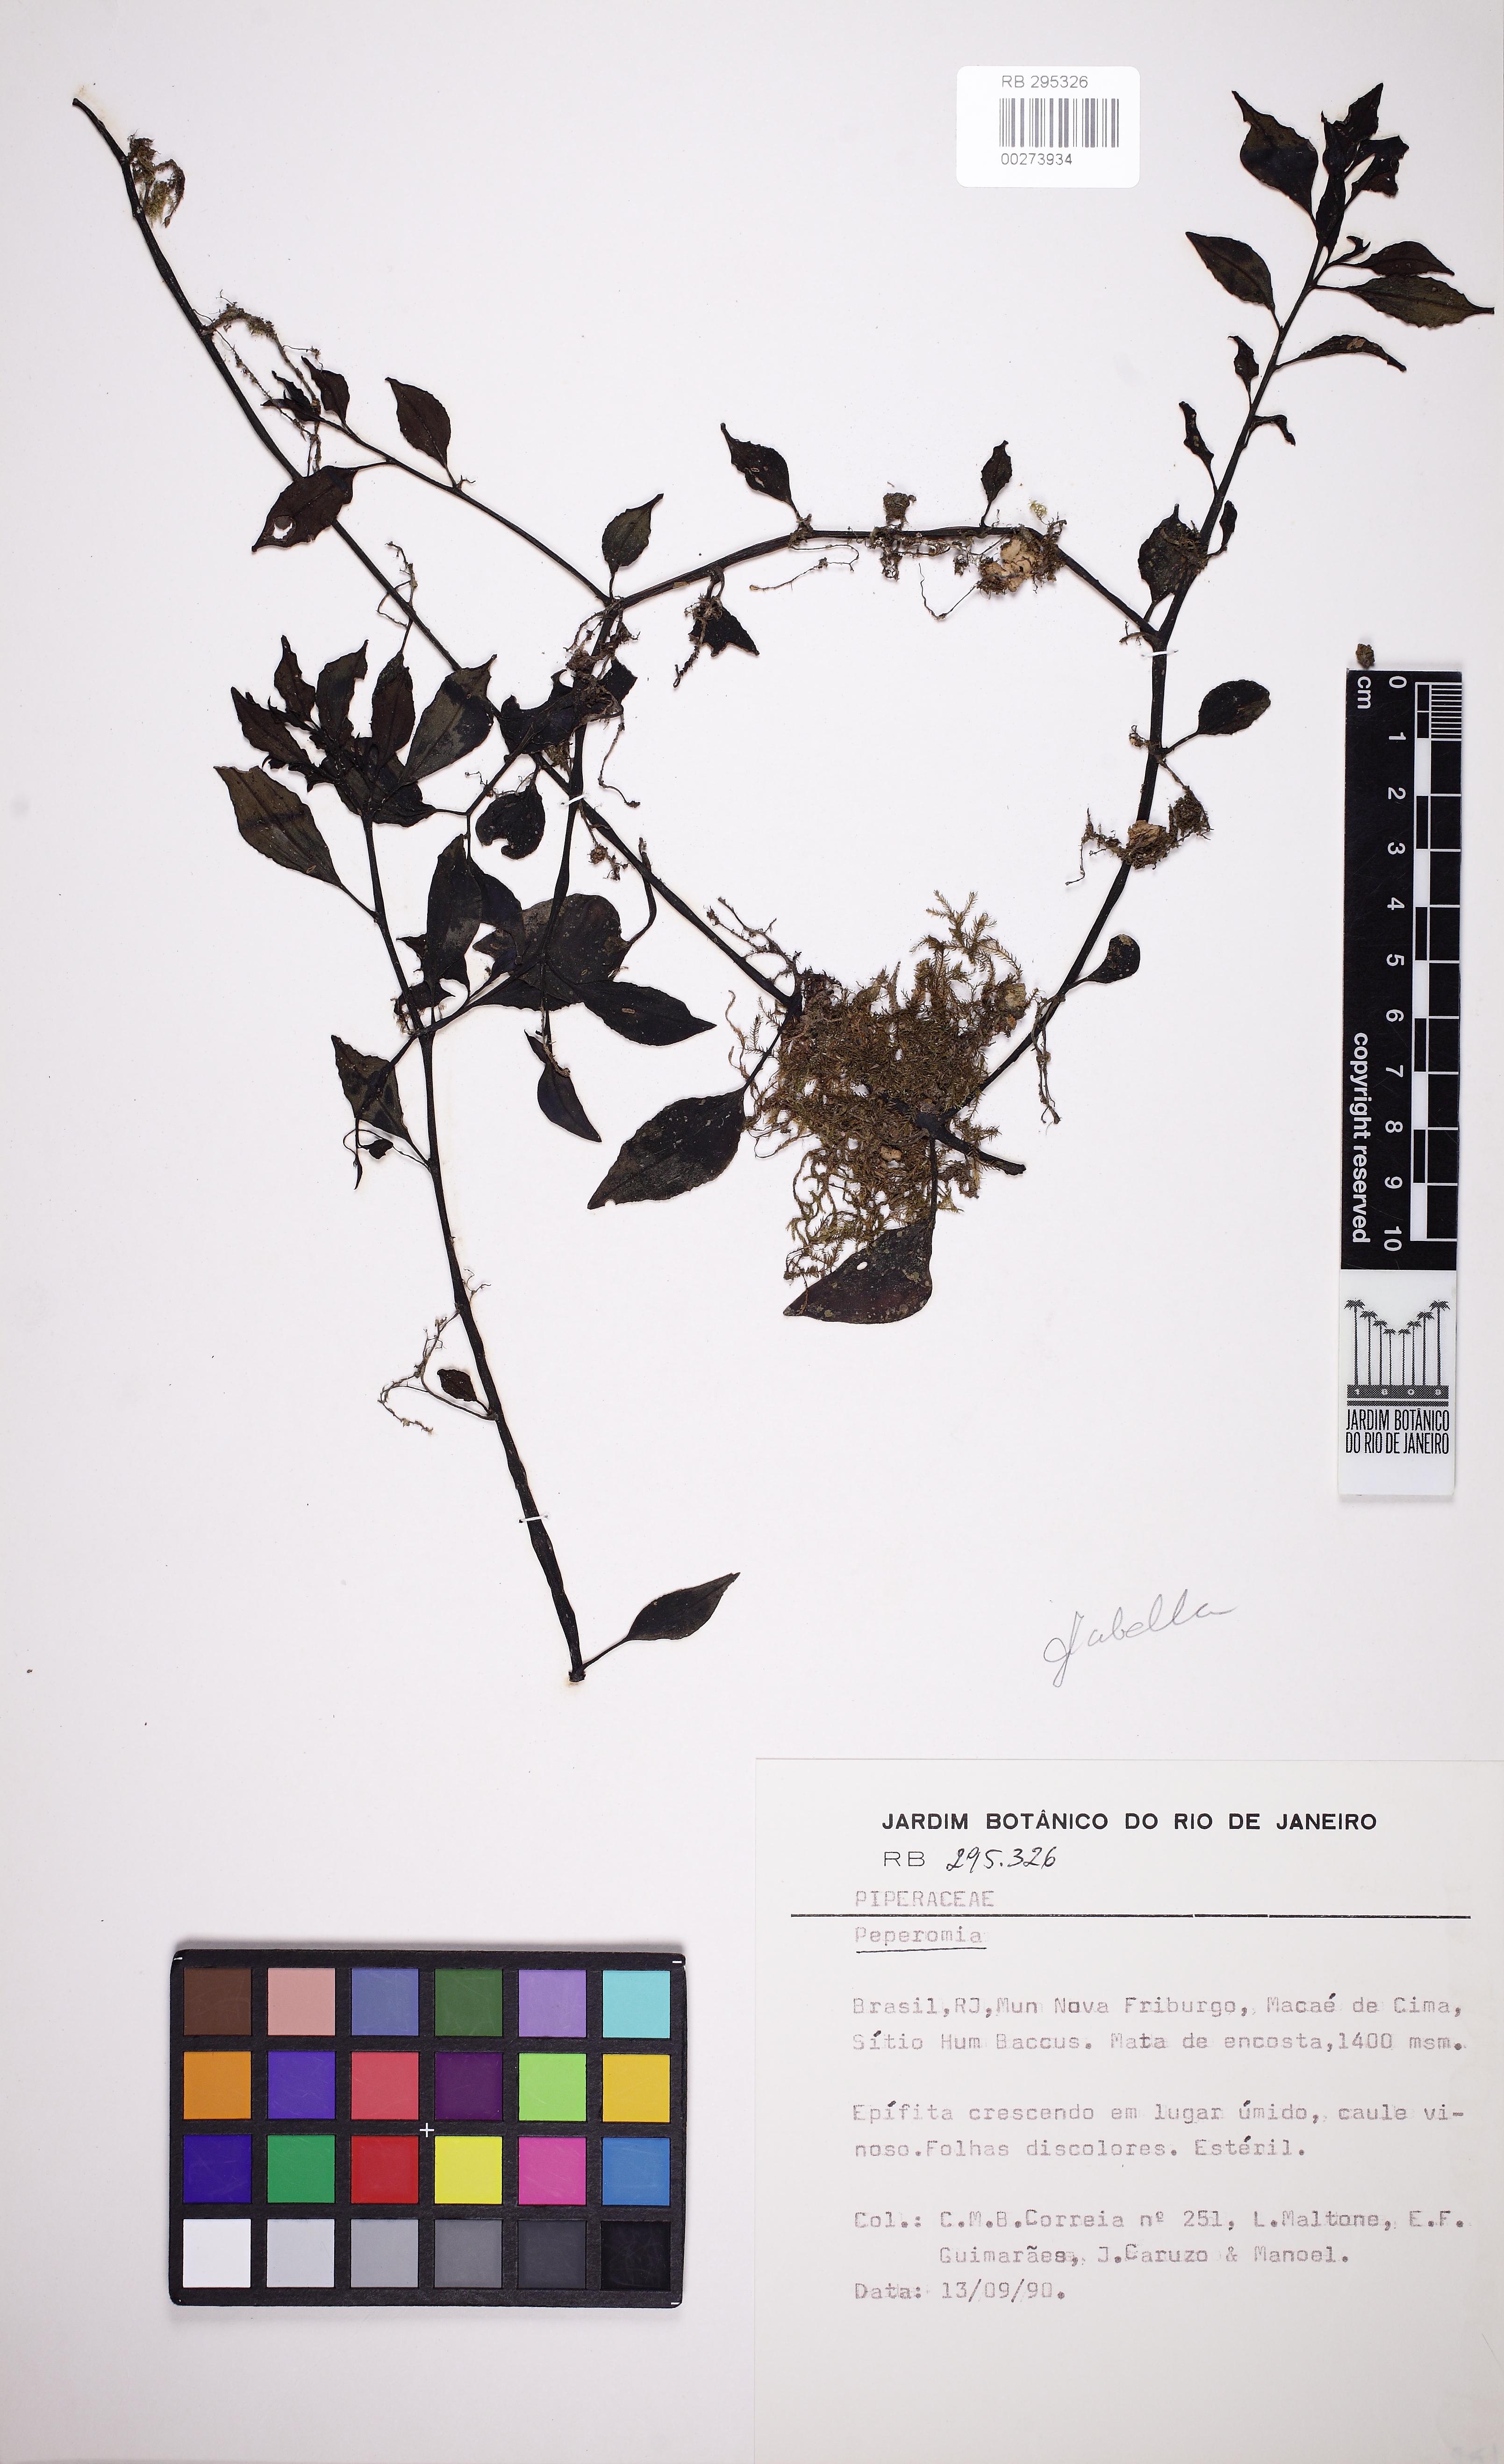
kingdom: Plantae
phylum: Tracheophyta
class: Magnoliopsida
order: Piperales
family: Piperaceae
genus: Peperomia
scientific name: Peperomia glabella
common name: Cypress peperomia
